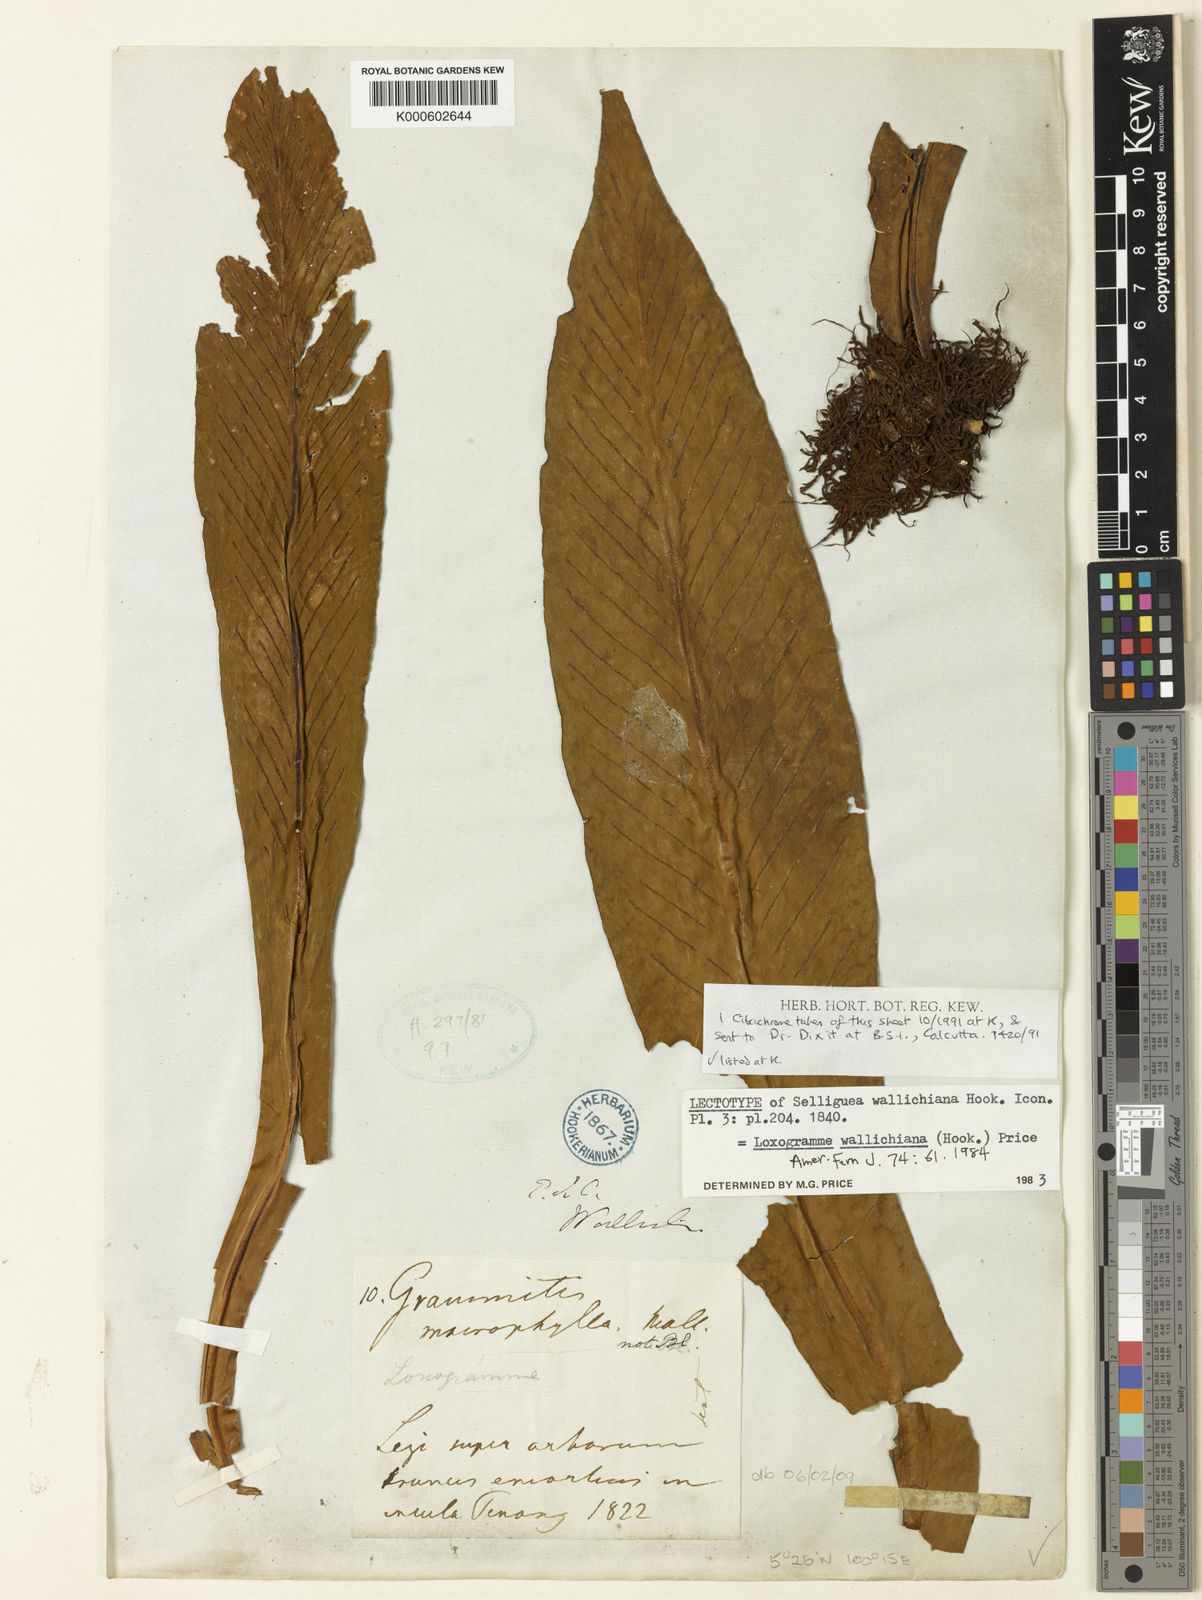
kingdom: Plantae
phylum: Tracheophyta
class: Polypodiopsida
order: Polypodiales
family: Polypodiaceae
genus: Loxogramme
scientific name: Loxogramme wallichiana
